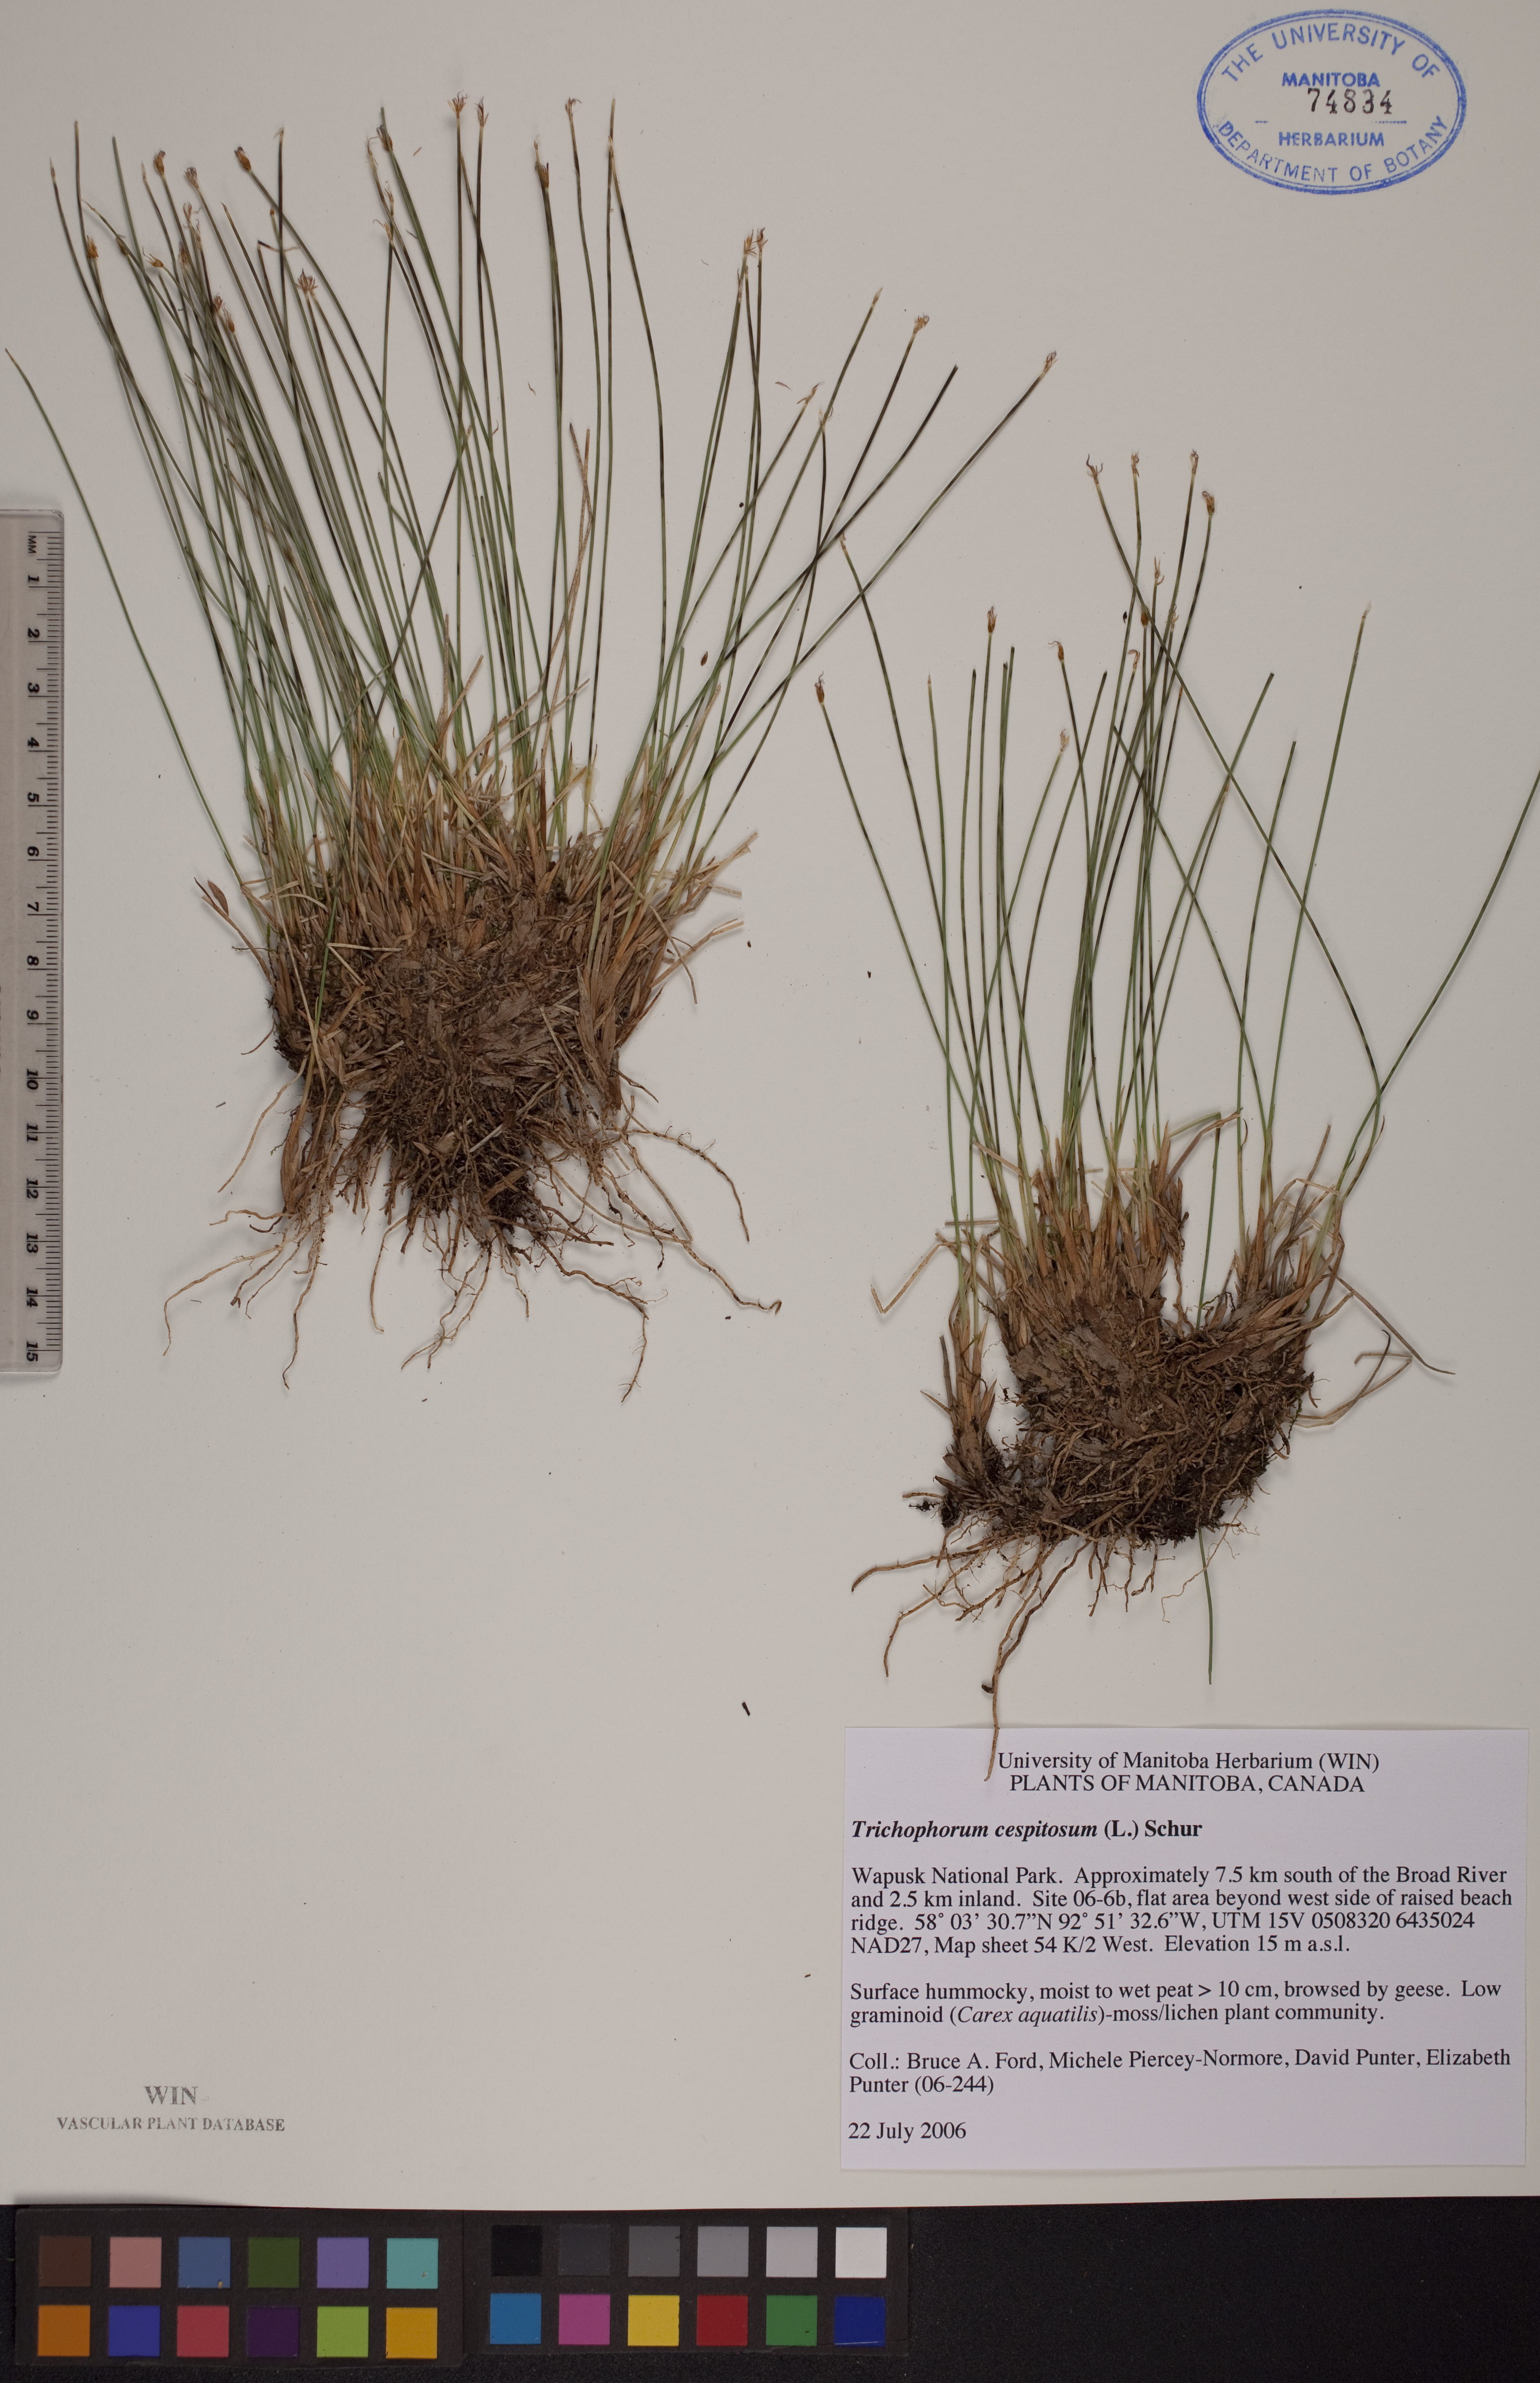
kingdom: Plantae
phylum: Tracheophyta
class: Liliopsida
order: Poales
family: Cyperaceae
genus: Trichophorum
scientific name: Trichophorum cespitosum
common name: Cespitose bulrush
